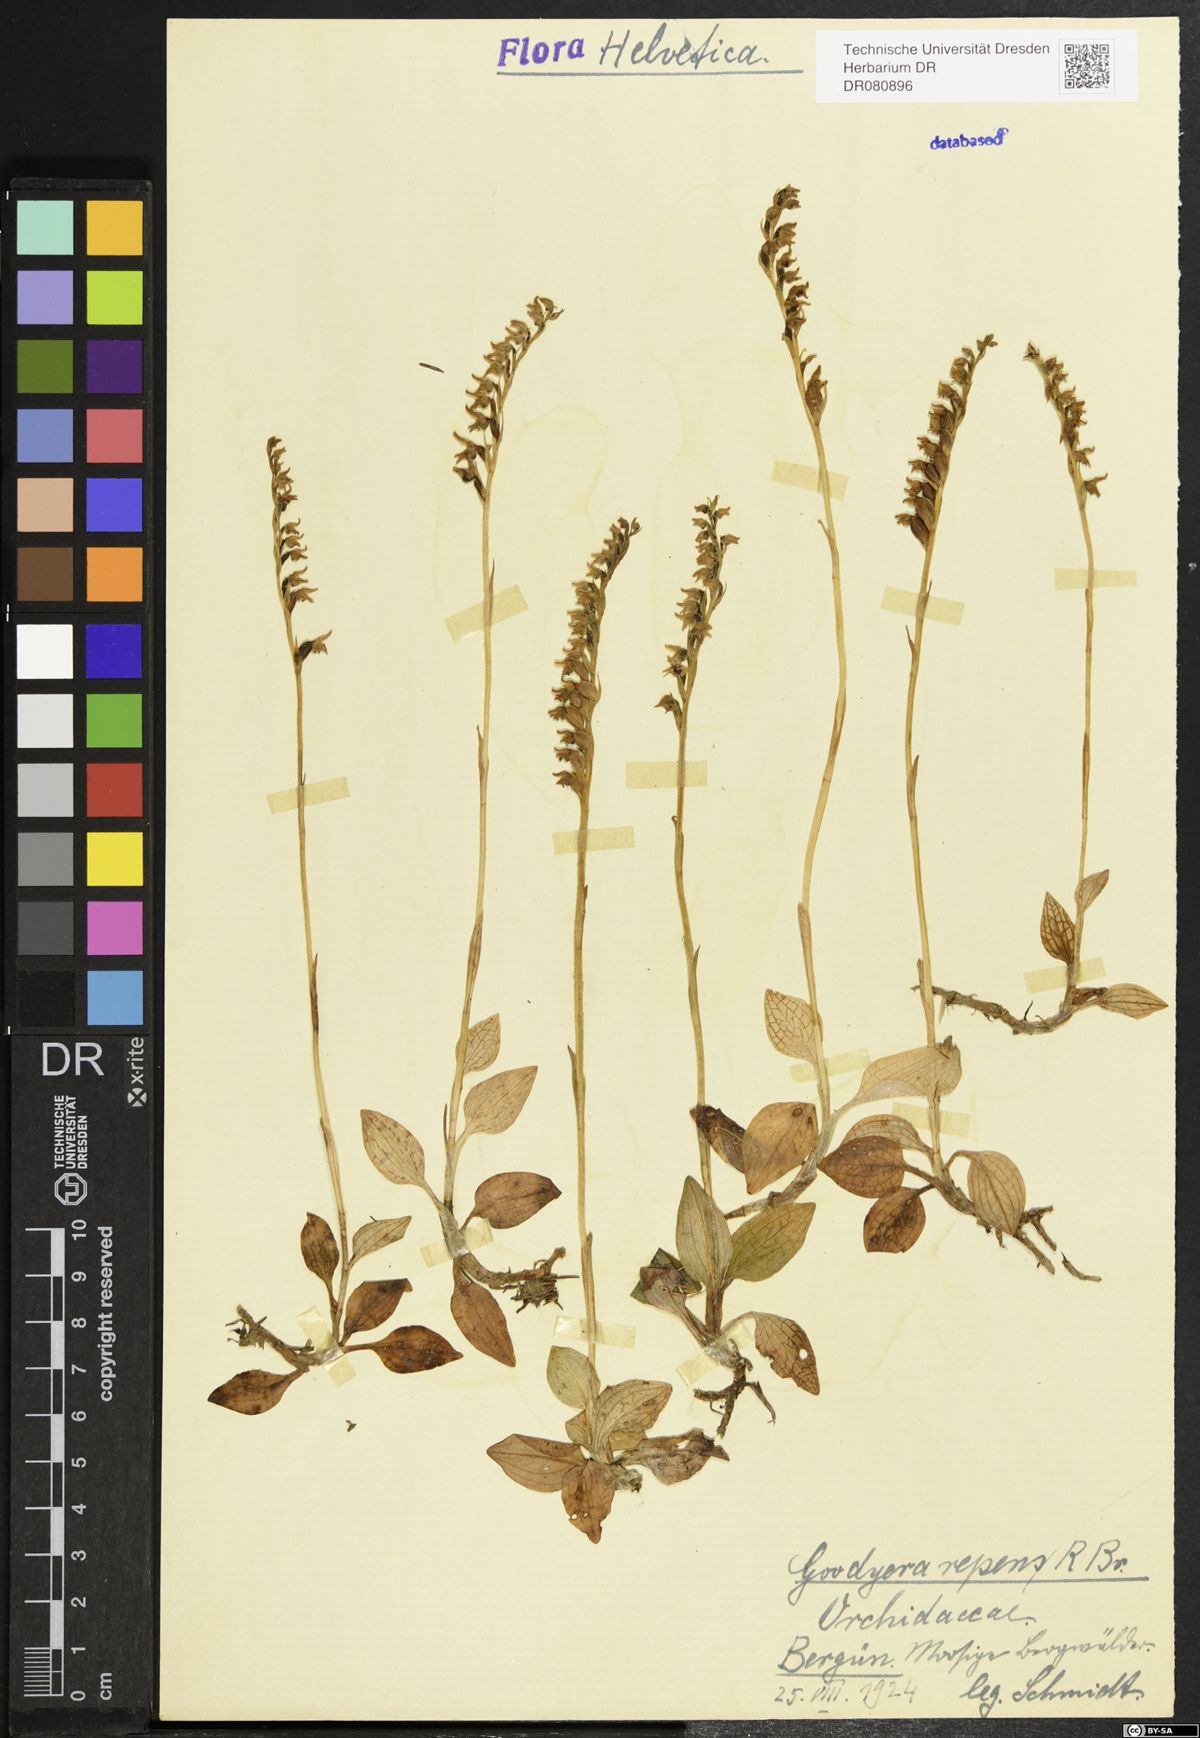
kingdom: Plantae
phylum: Tracheophyta
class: Liliopsida
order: Asparagales
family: Orchidaceae
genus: Goodyera
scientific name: Goodyera repens
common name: Creeping lady's-tresses
